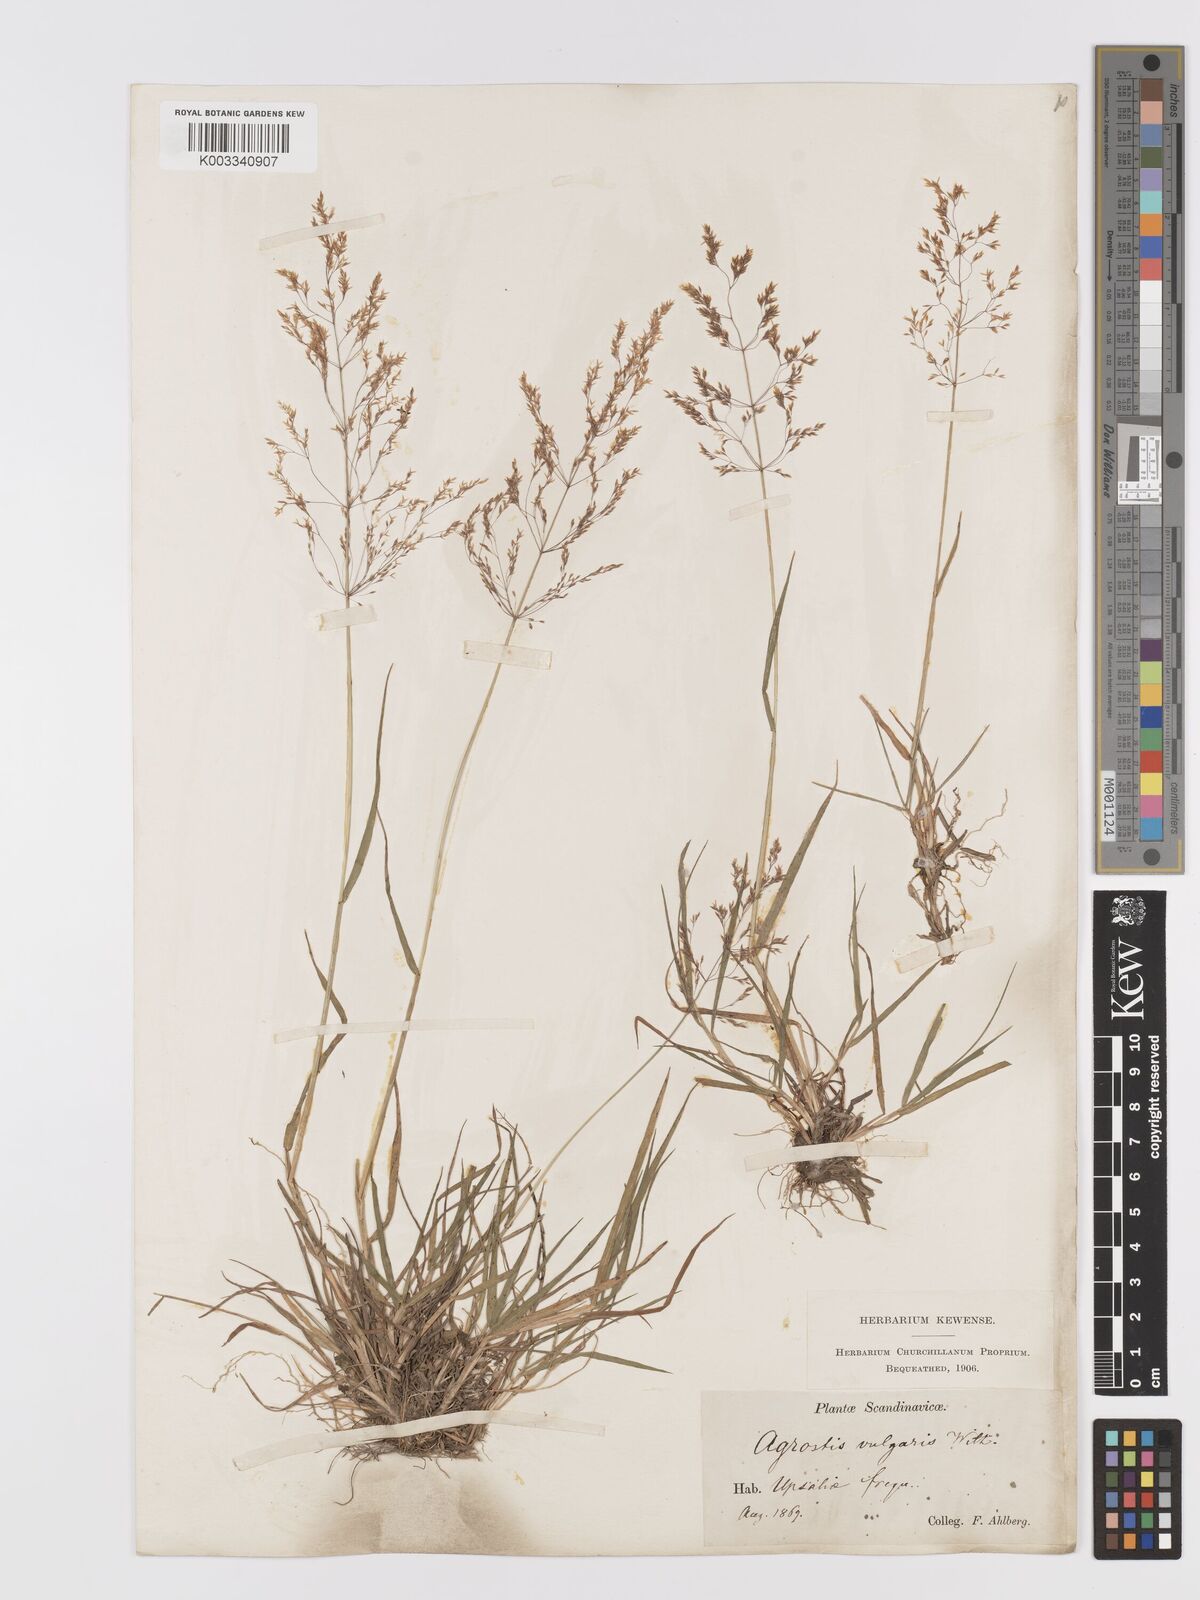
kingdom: Plantae
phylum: Tracheophyta
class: Liliopsida
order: Poales
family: Poaceae
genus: Agrostis
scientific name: Agrostis capillaris
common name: Colonial bentgrass
